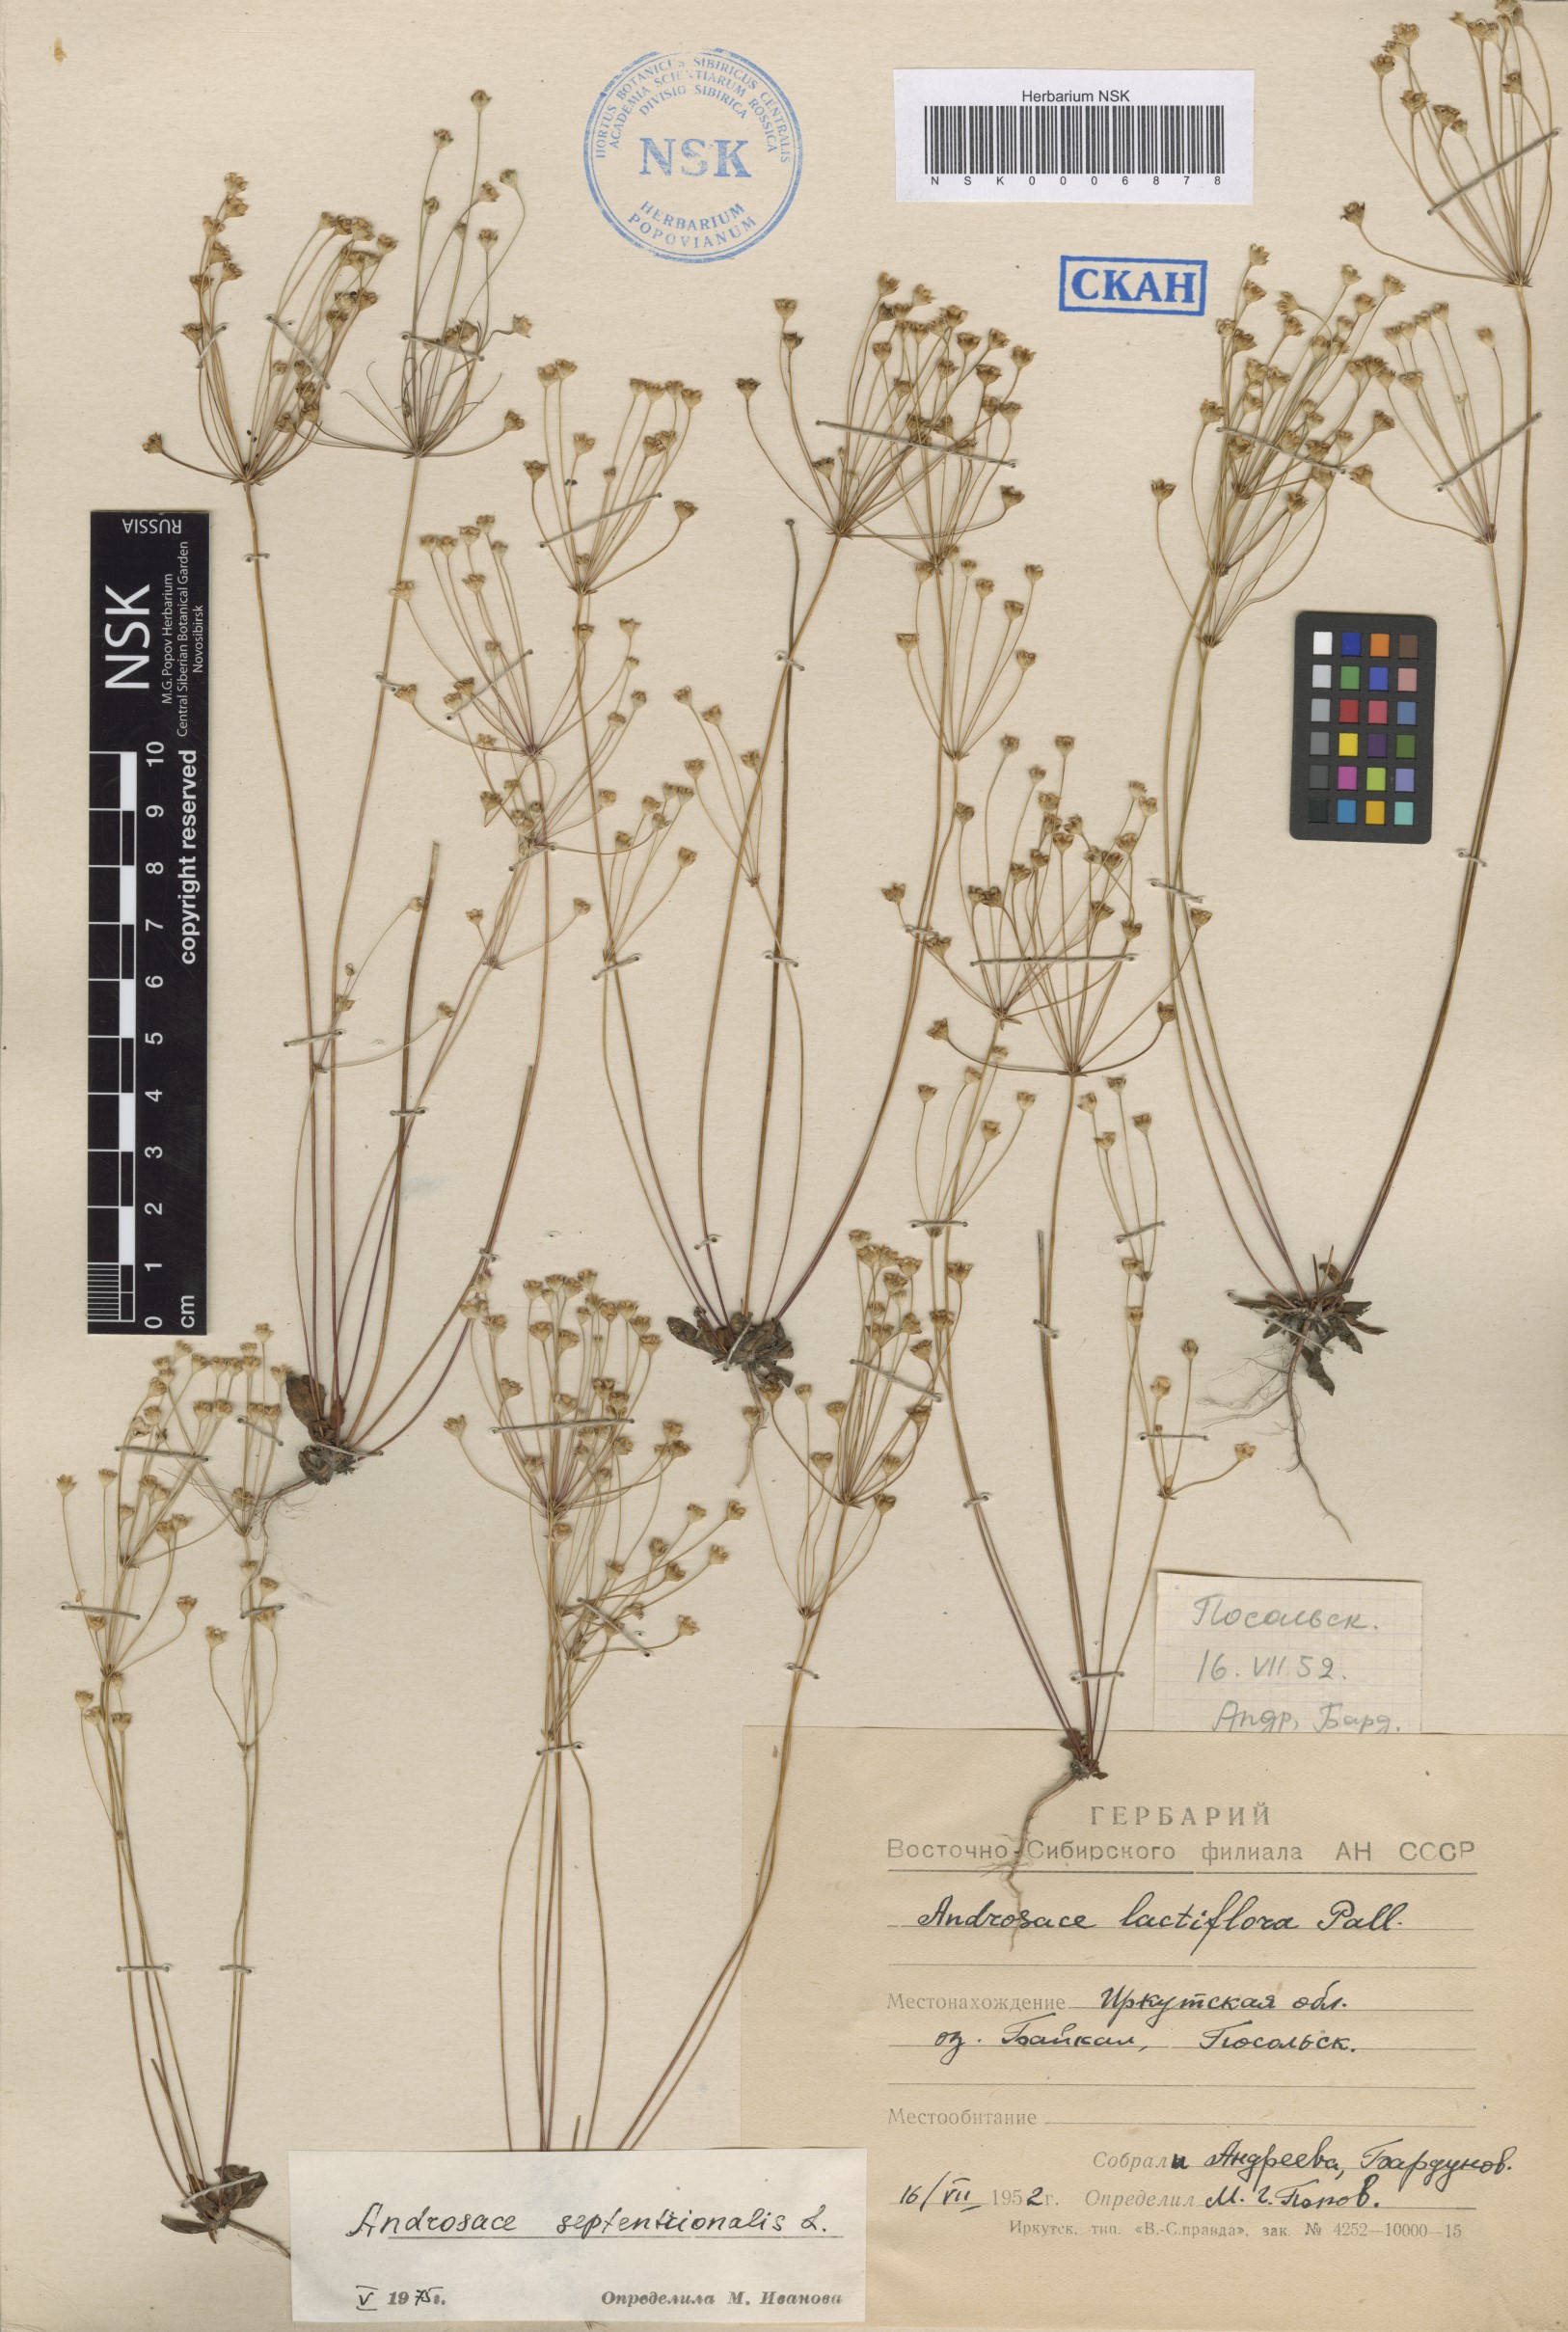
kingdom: Plantae
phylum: Tracheophyta
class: Magnoliopsida
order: Ericales
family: Primulaceae
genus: Androsace
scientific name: Androsace septentrionalis
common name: Hairy northern fairy-candelabra
